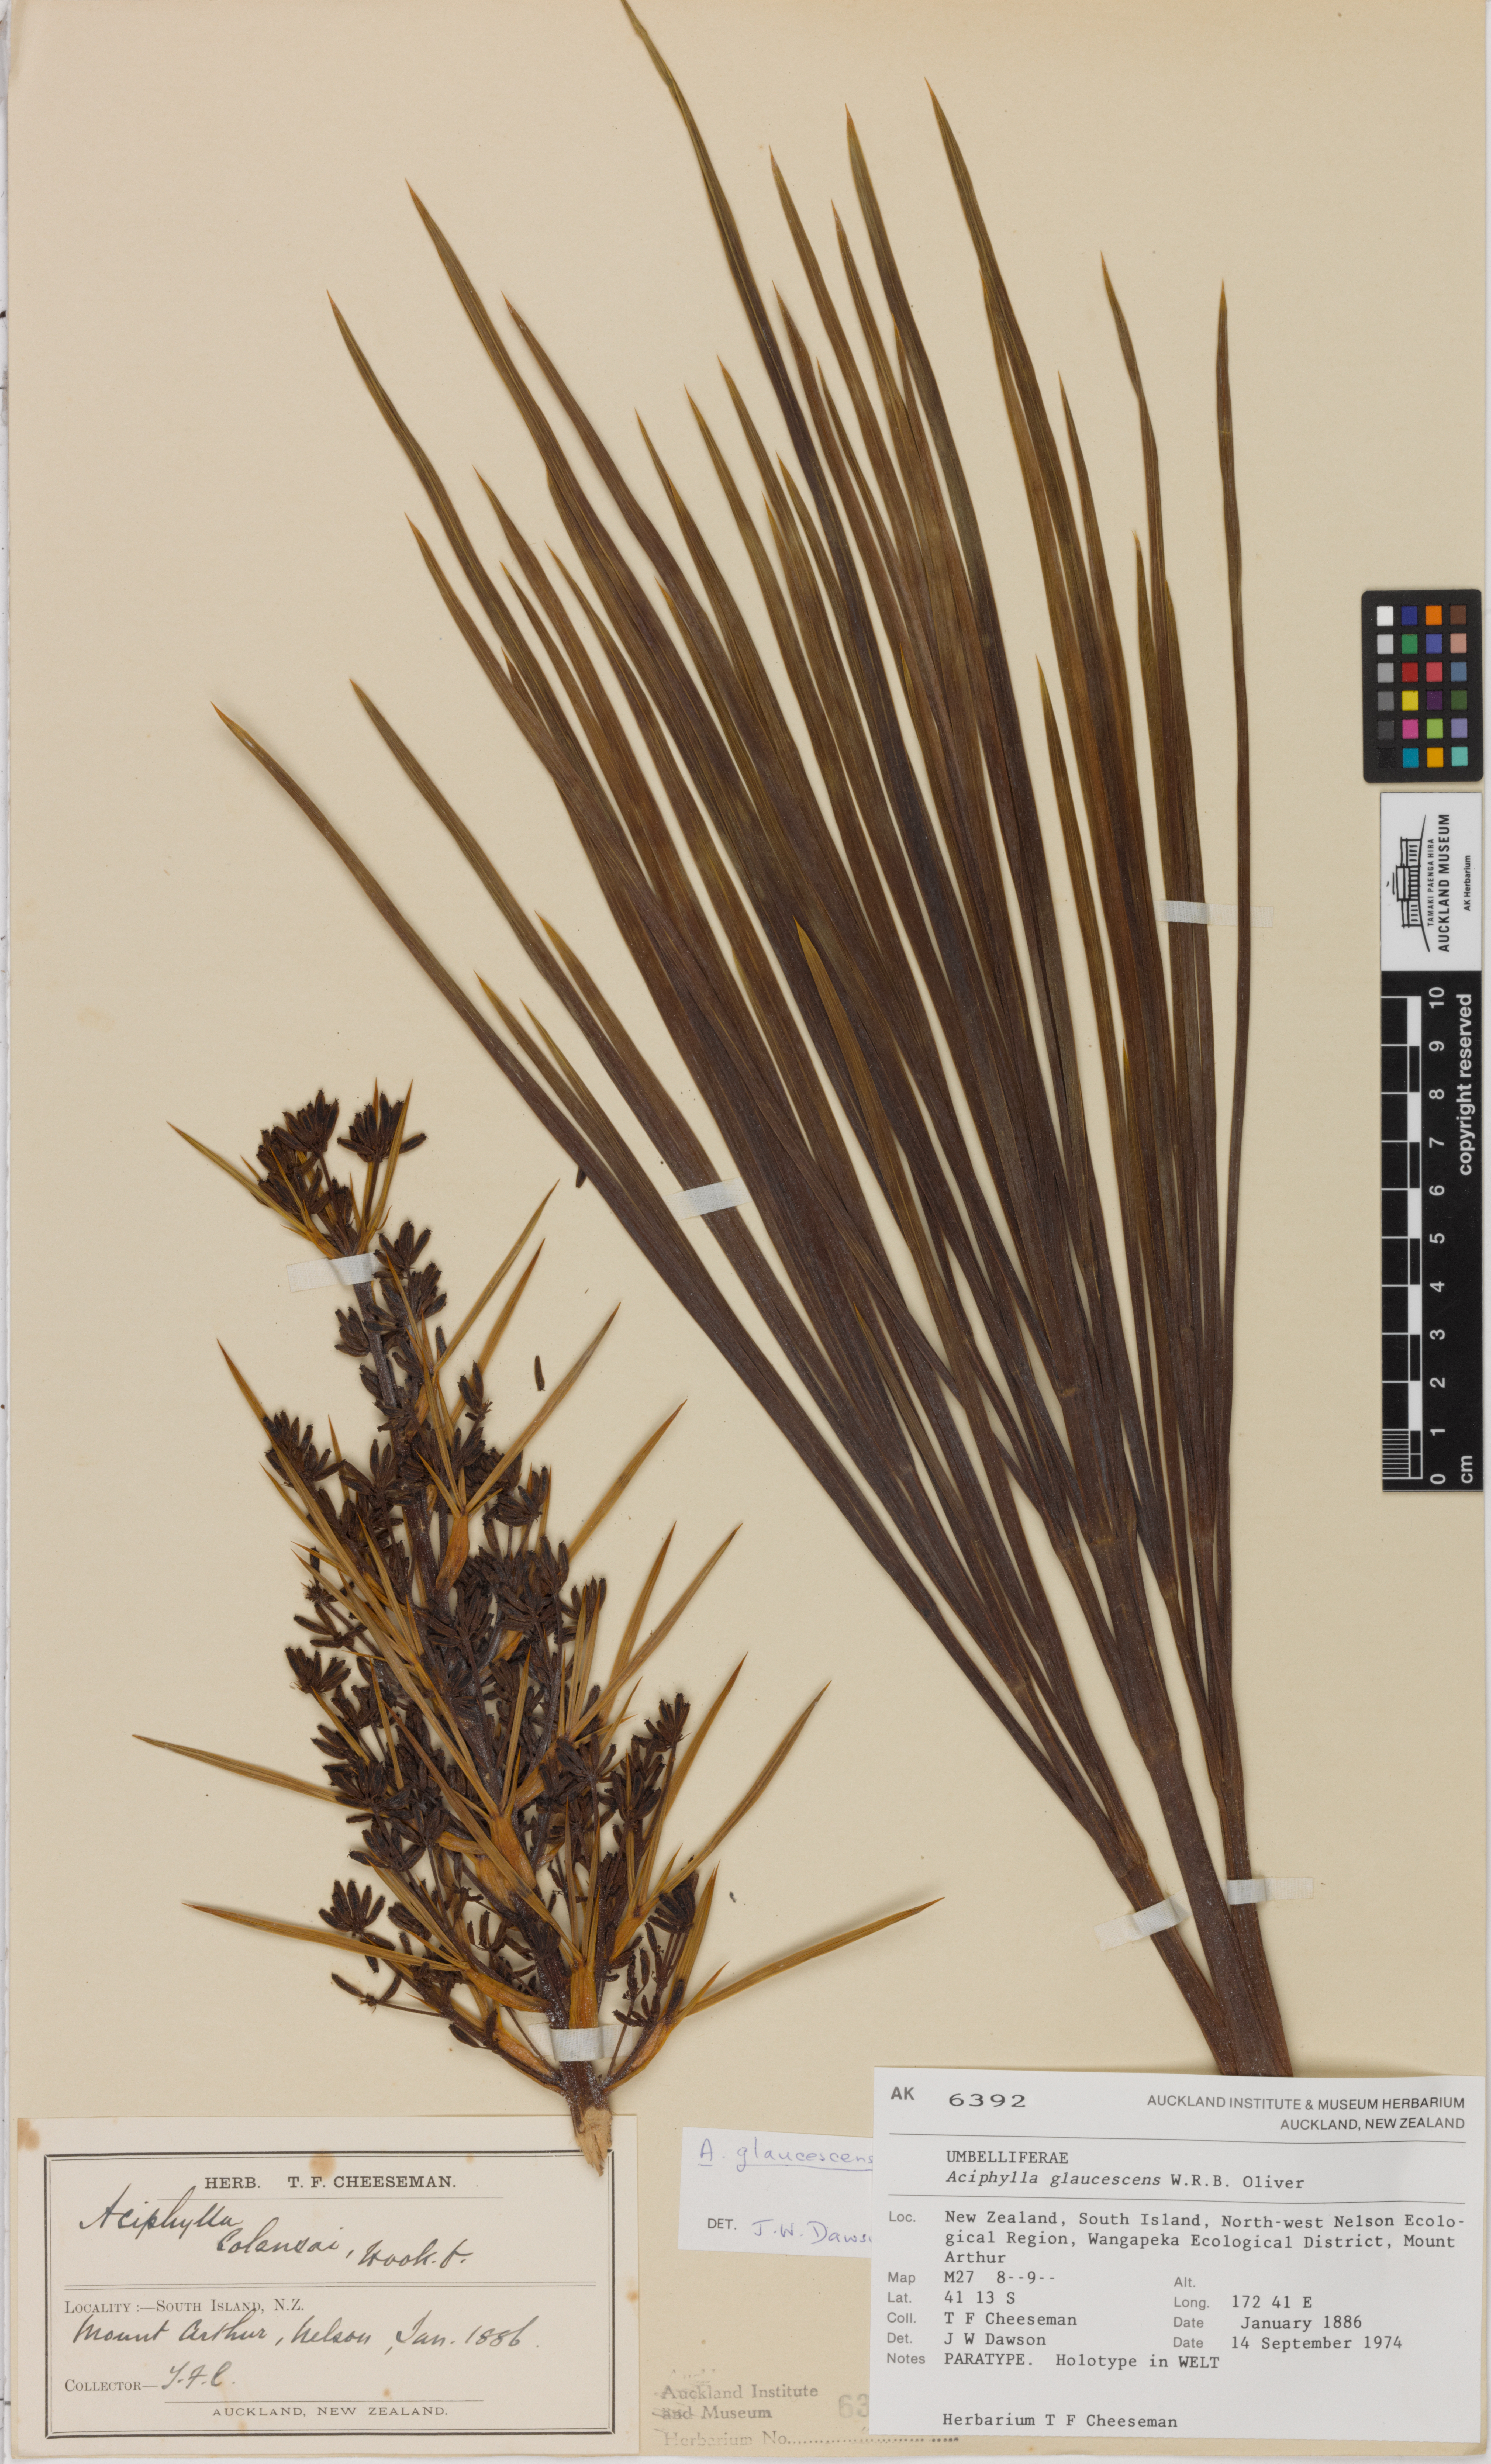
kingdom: Plantae
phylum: Tracheophyta
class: Magnoliopsida
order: Apiales
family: Apiaceae
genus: Aciphylla
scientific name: Aciphylla glaucescens
